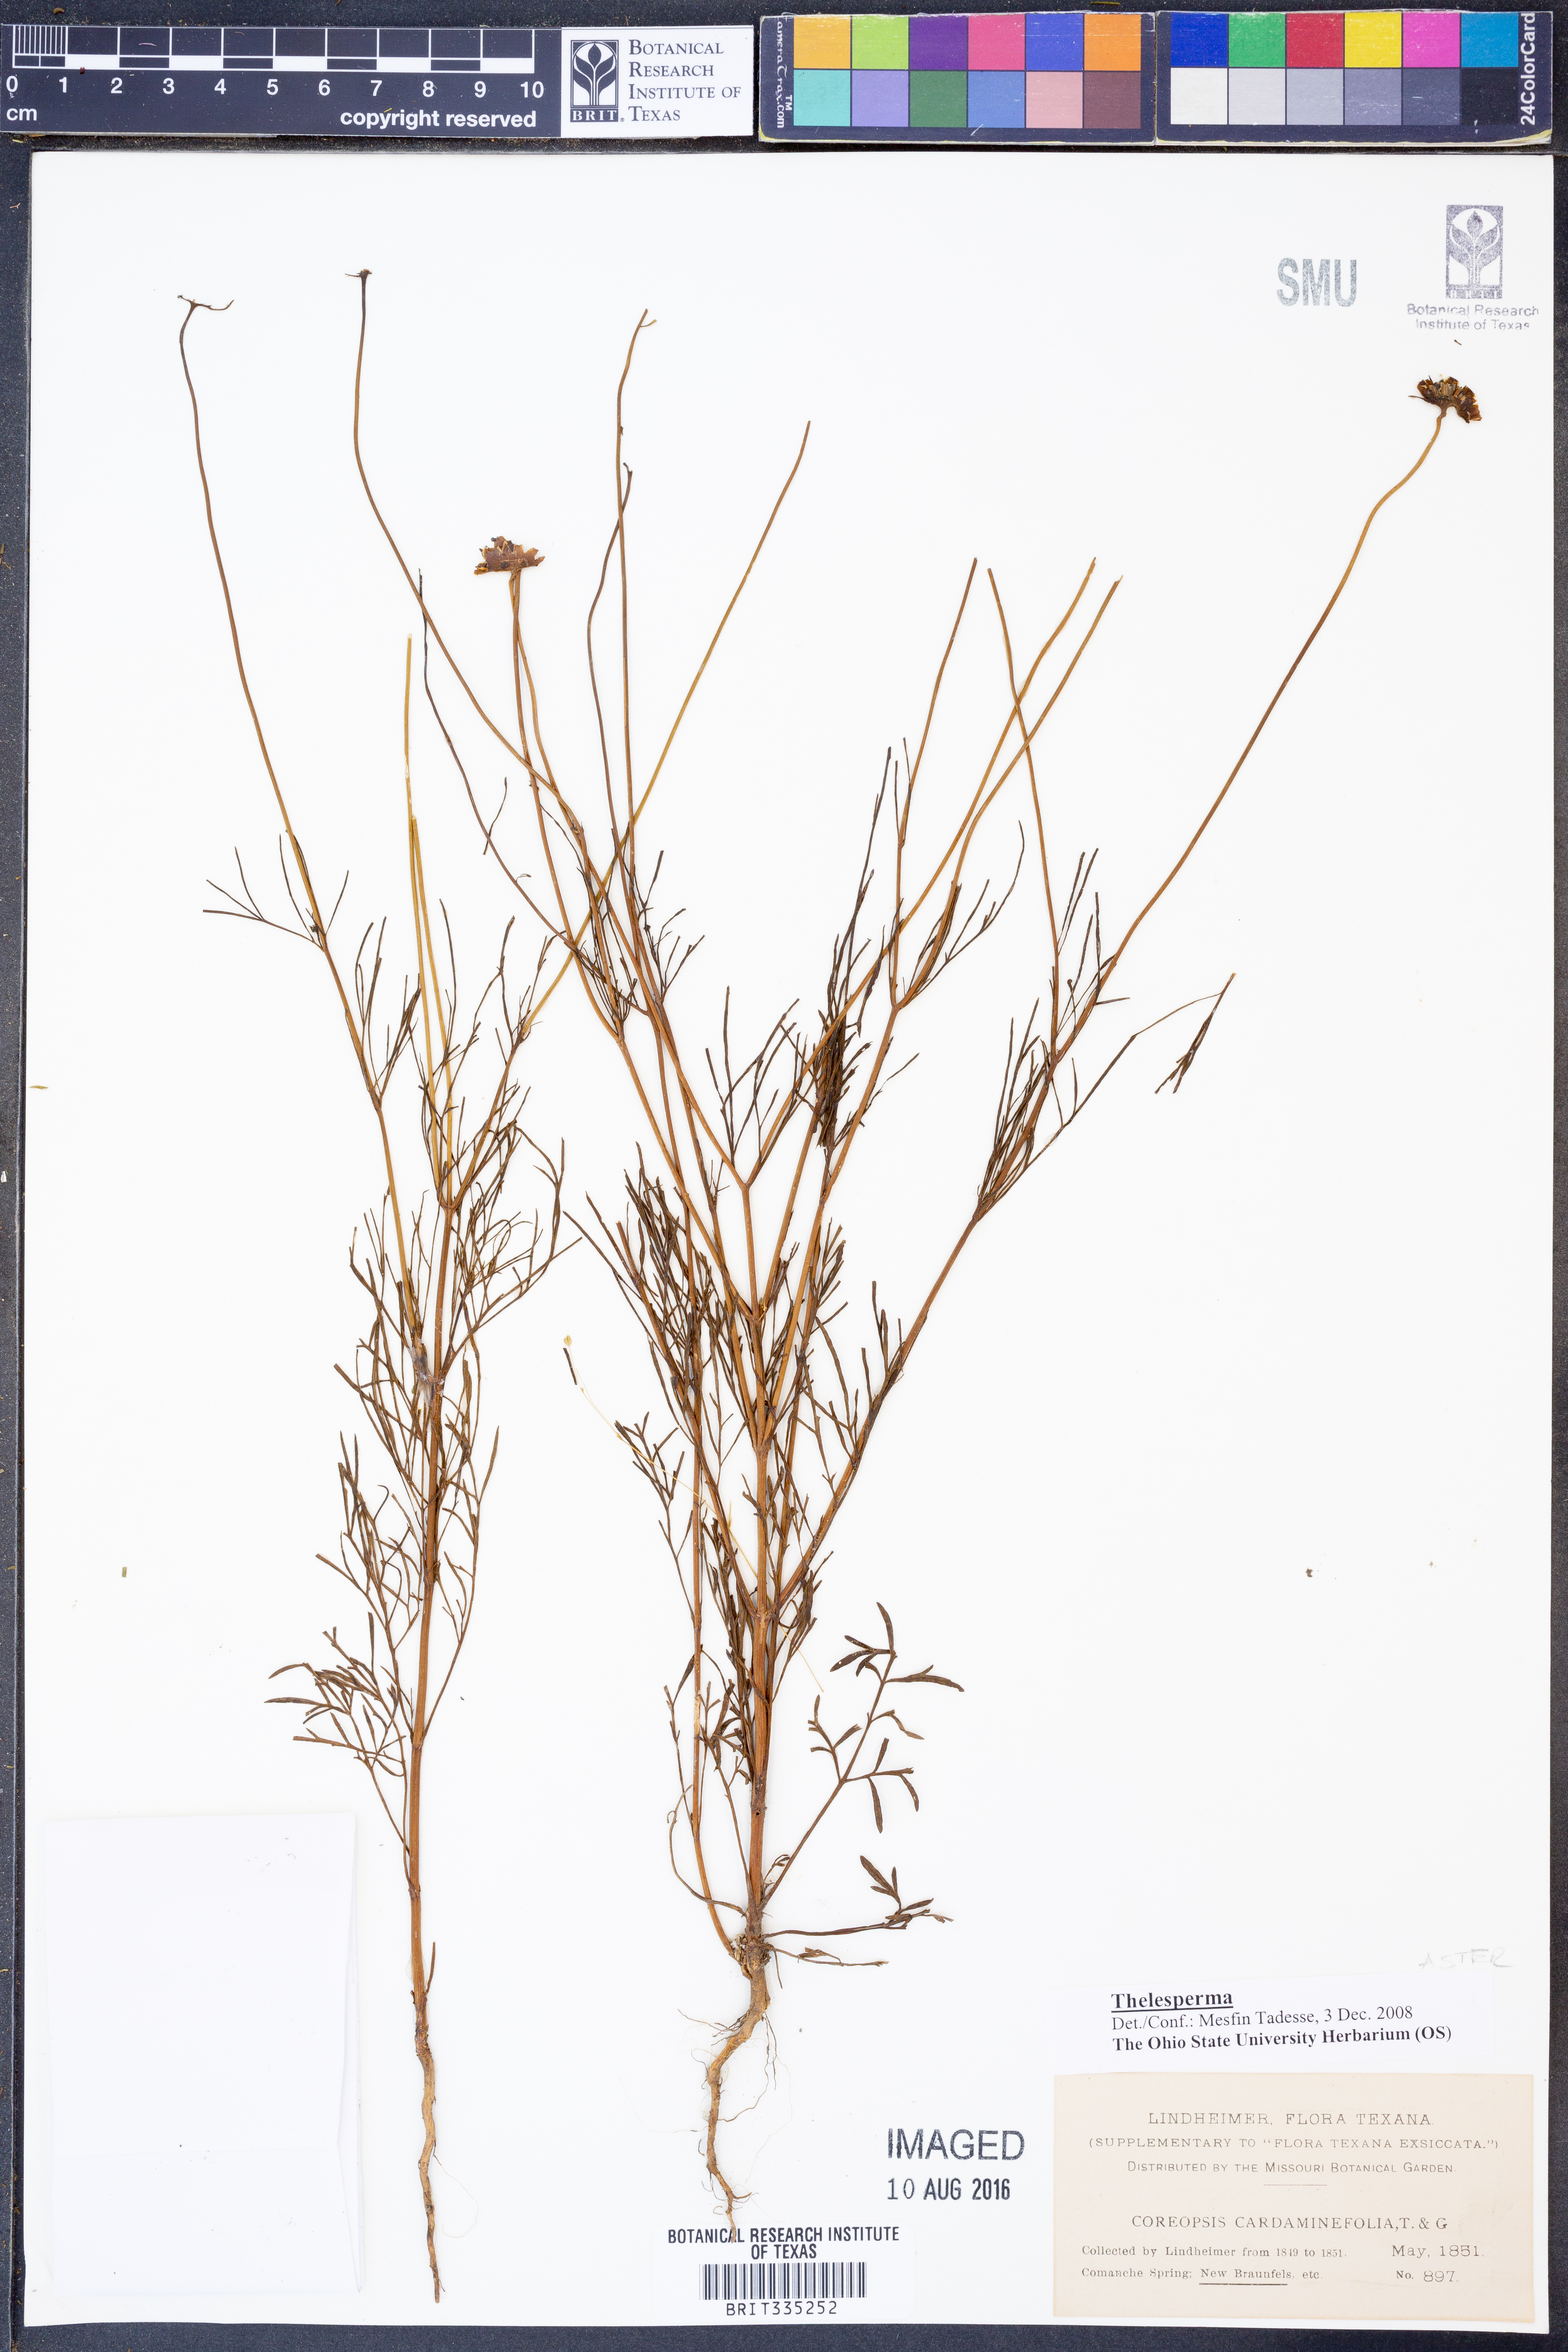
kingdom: Plantae
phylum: Tracheophyta
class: Magnoliopsida
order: Asterales
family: Asteraceae
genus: Thelesperma
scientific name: Thelesperma
